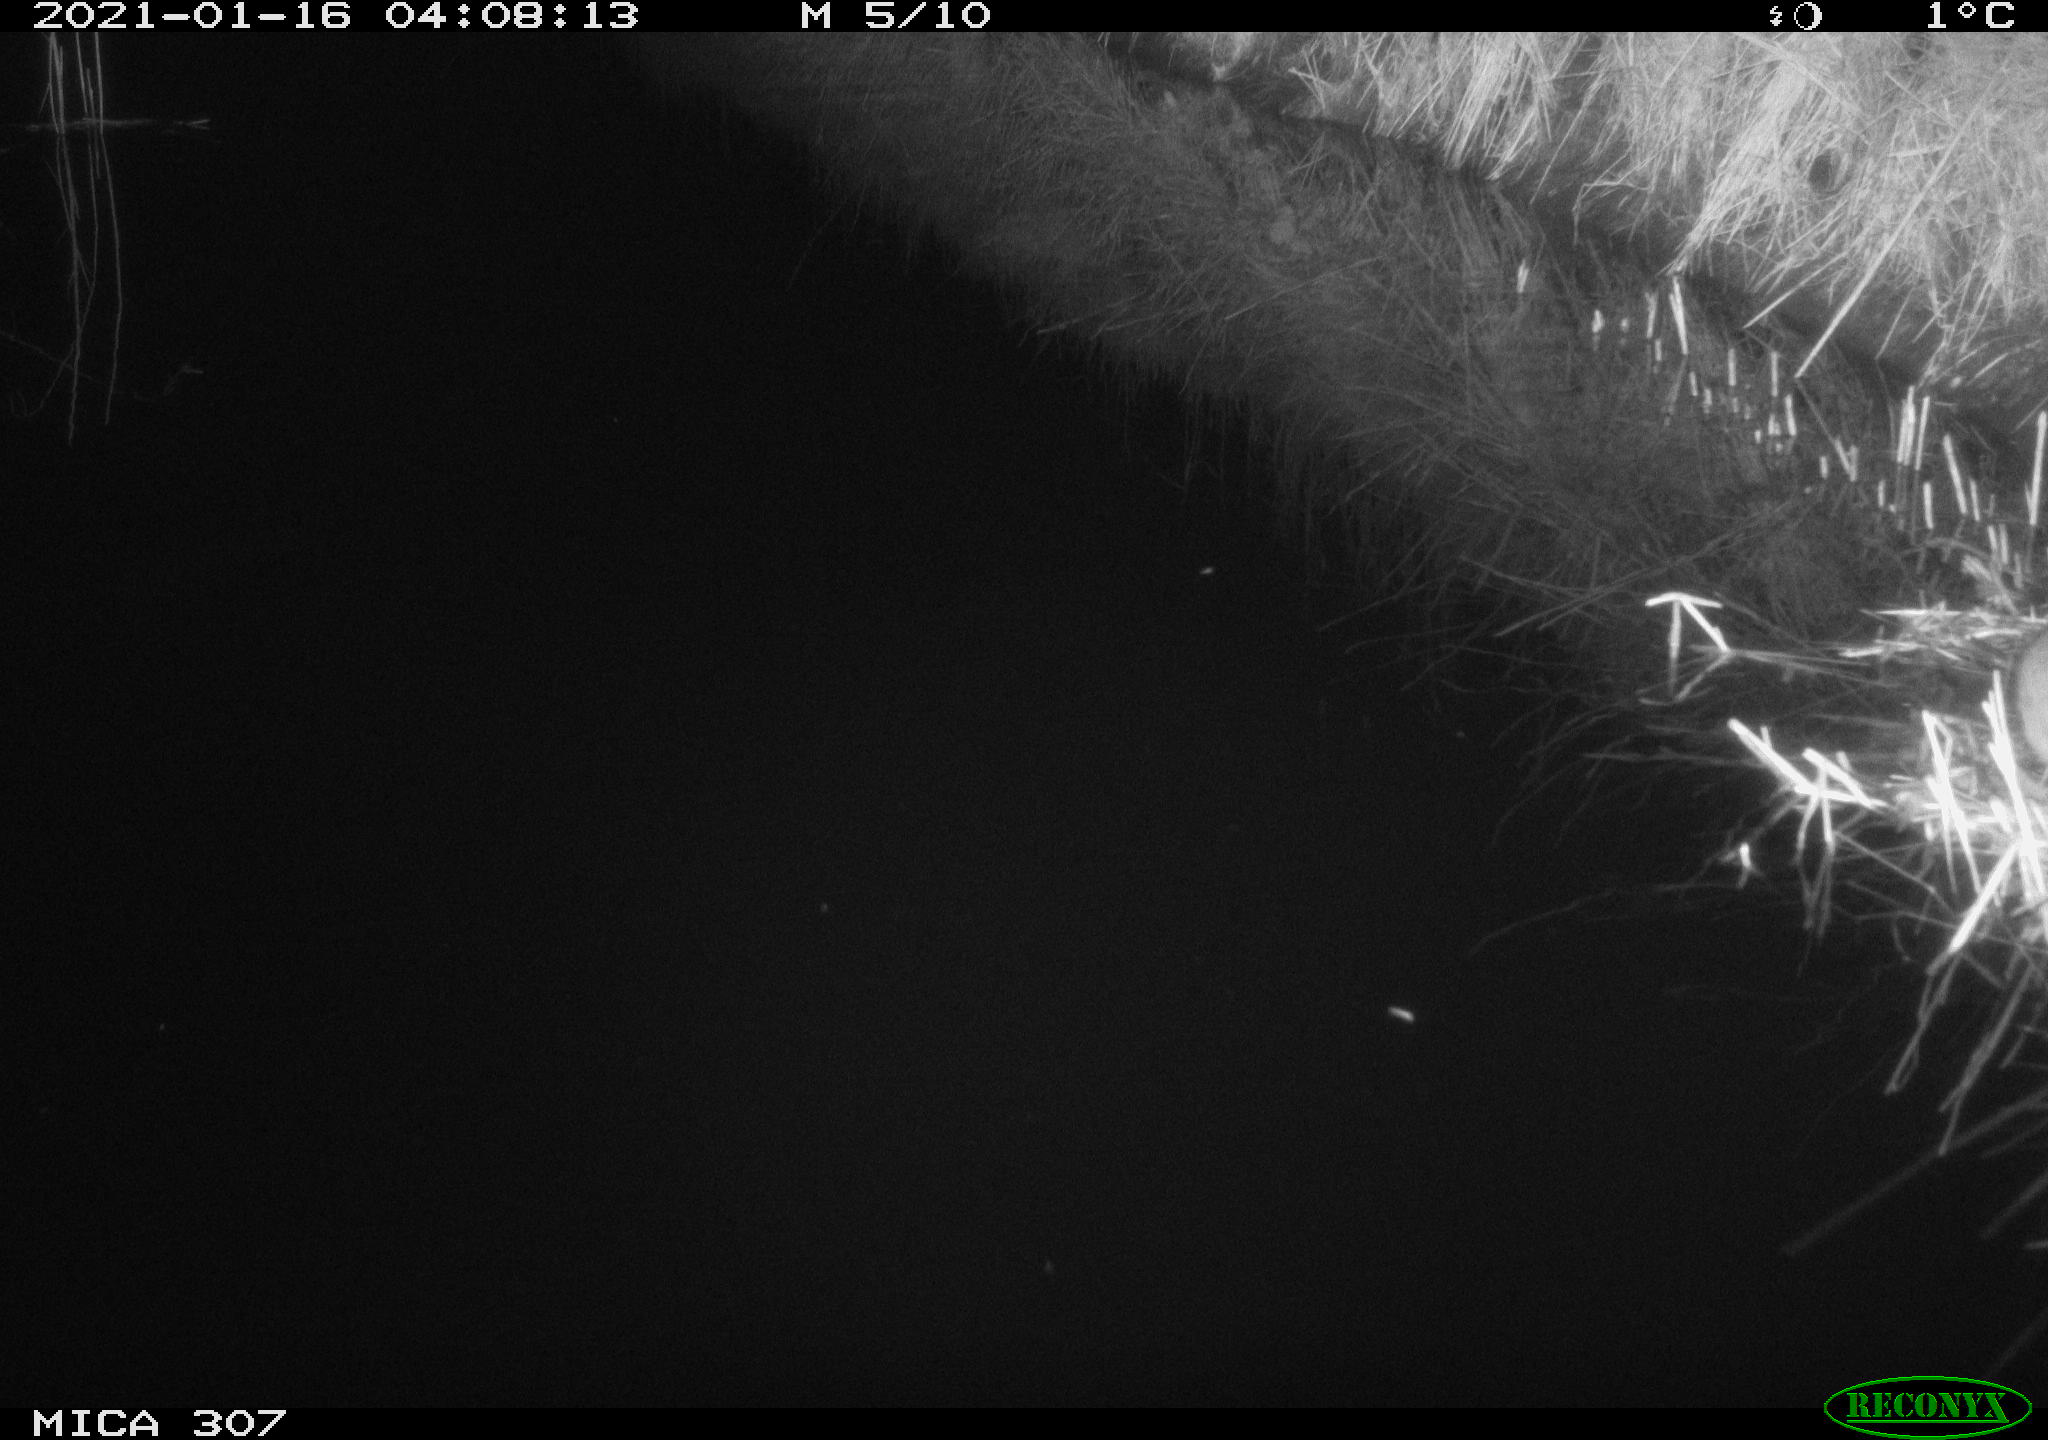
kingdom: Animalia
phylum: Chordata
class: Mammalia
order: Rodentia
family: Muridae
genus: Rattus
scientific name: Rattus norvegicus
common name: Brown rat
